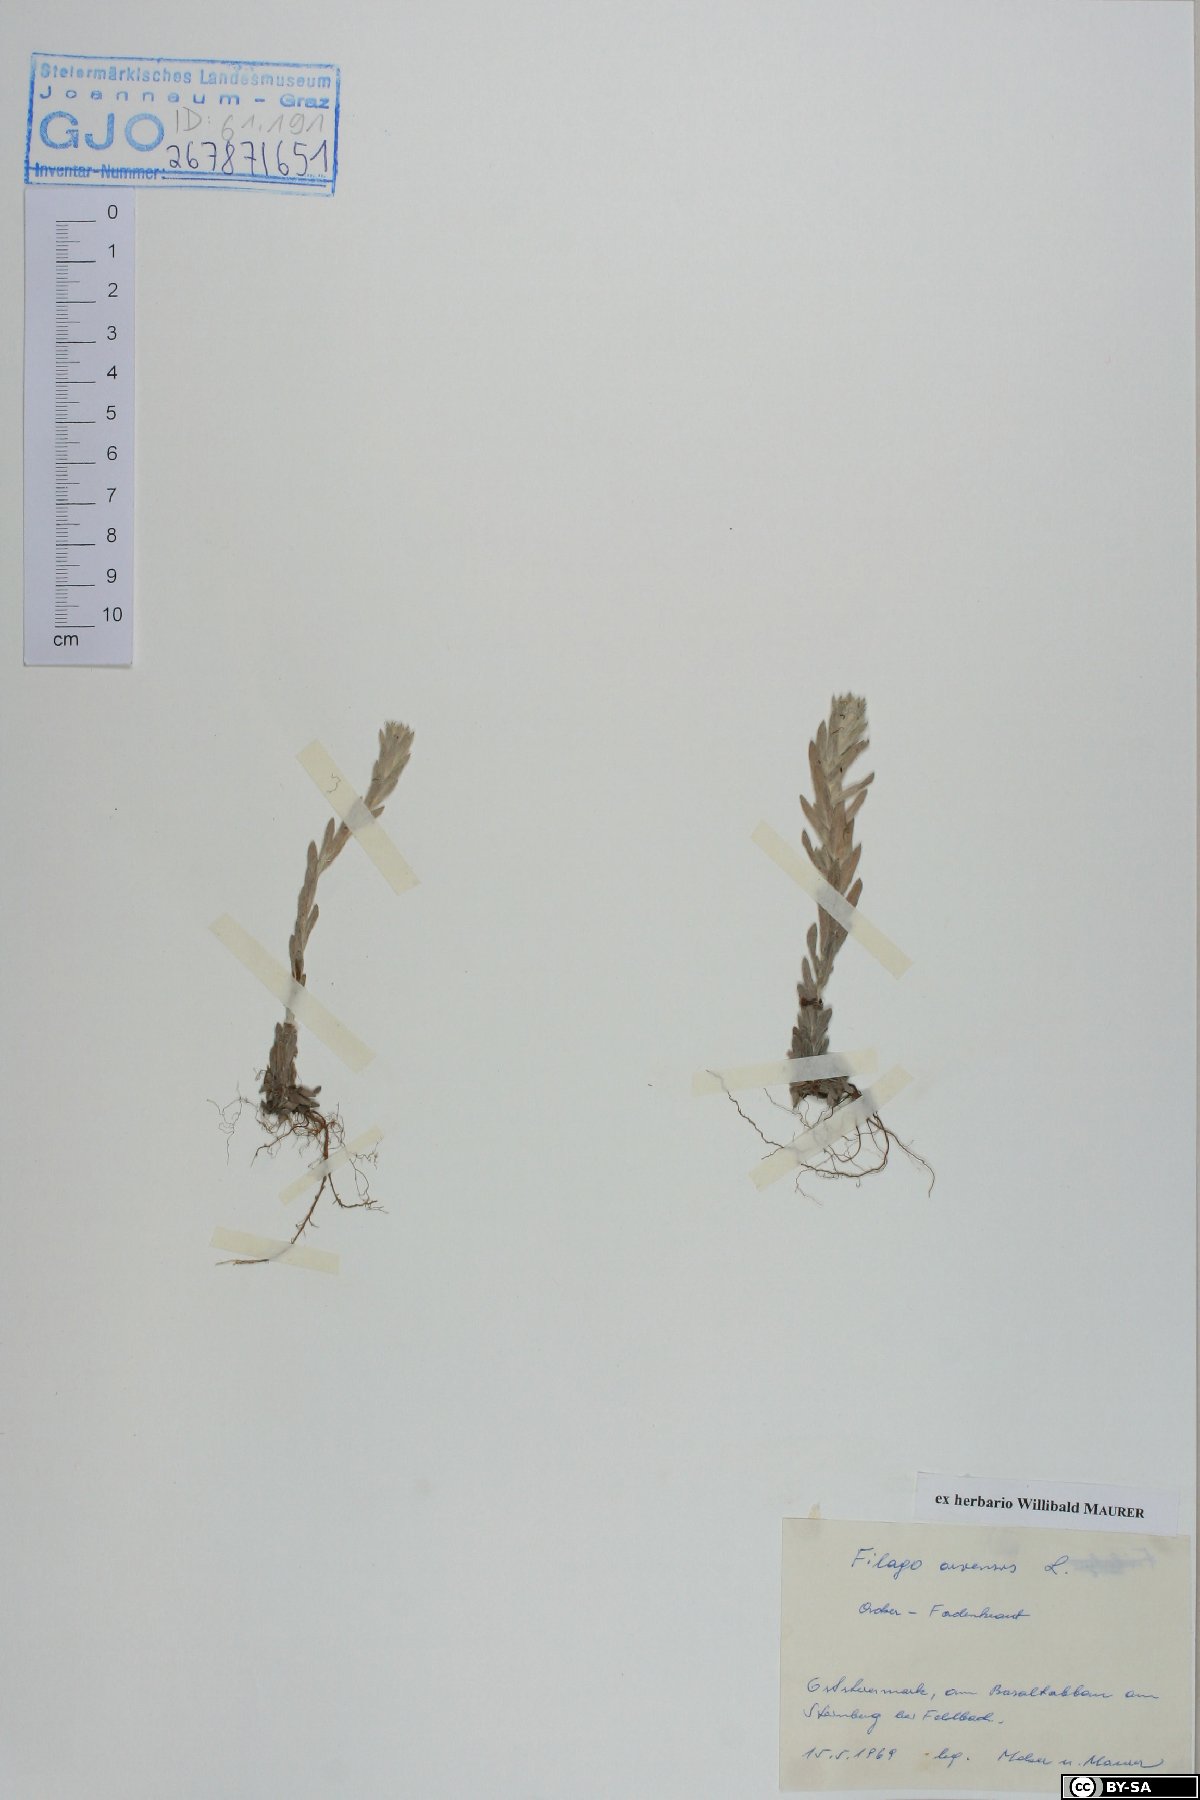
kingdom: Plantae
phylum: Tracheophyta
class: Magnoliopsida
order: Asterales
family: Asteraceae
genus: Filago
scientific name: Filago arvensis
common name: Field cudweed
